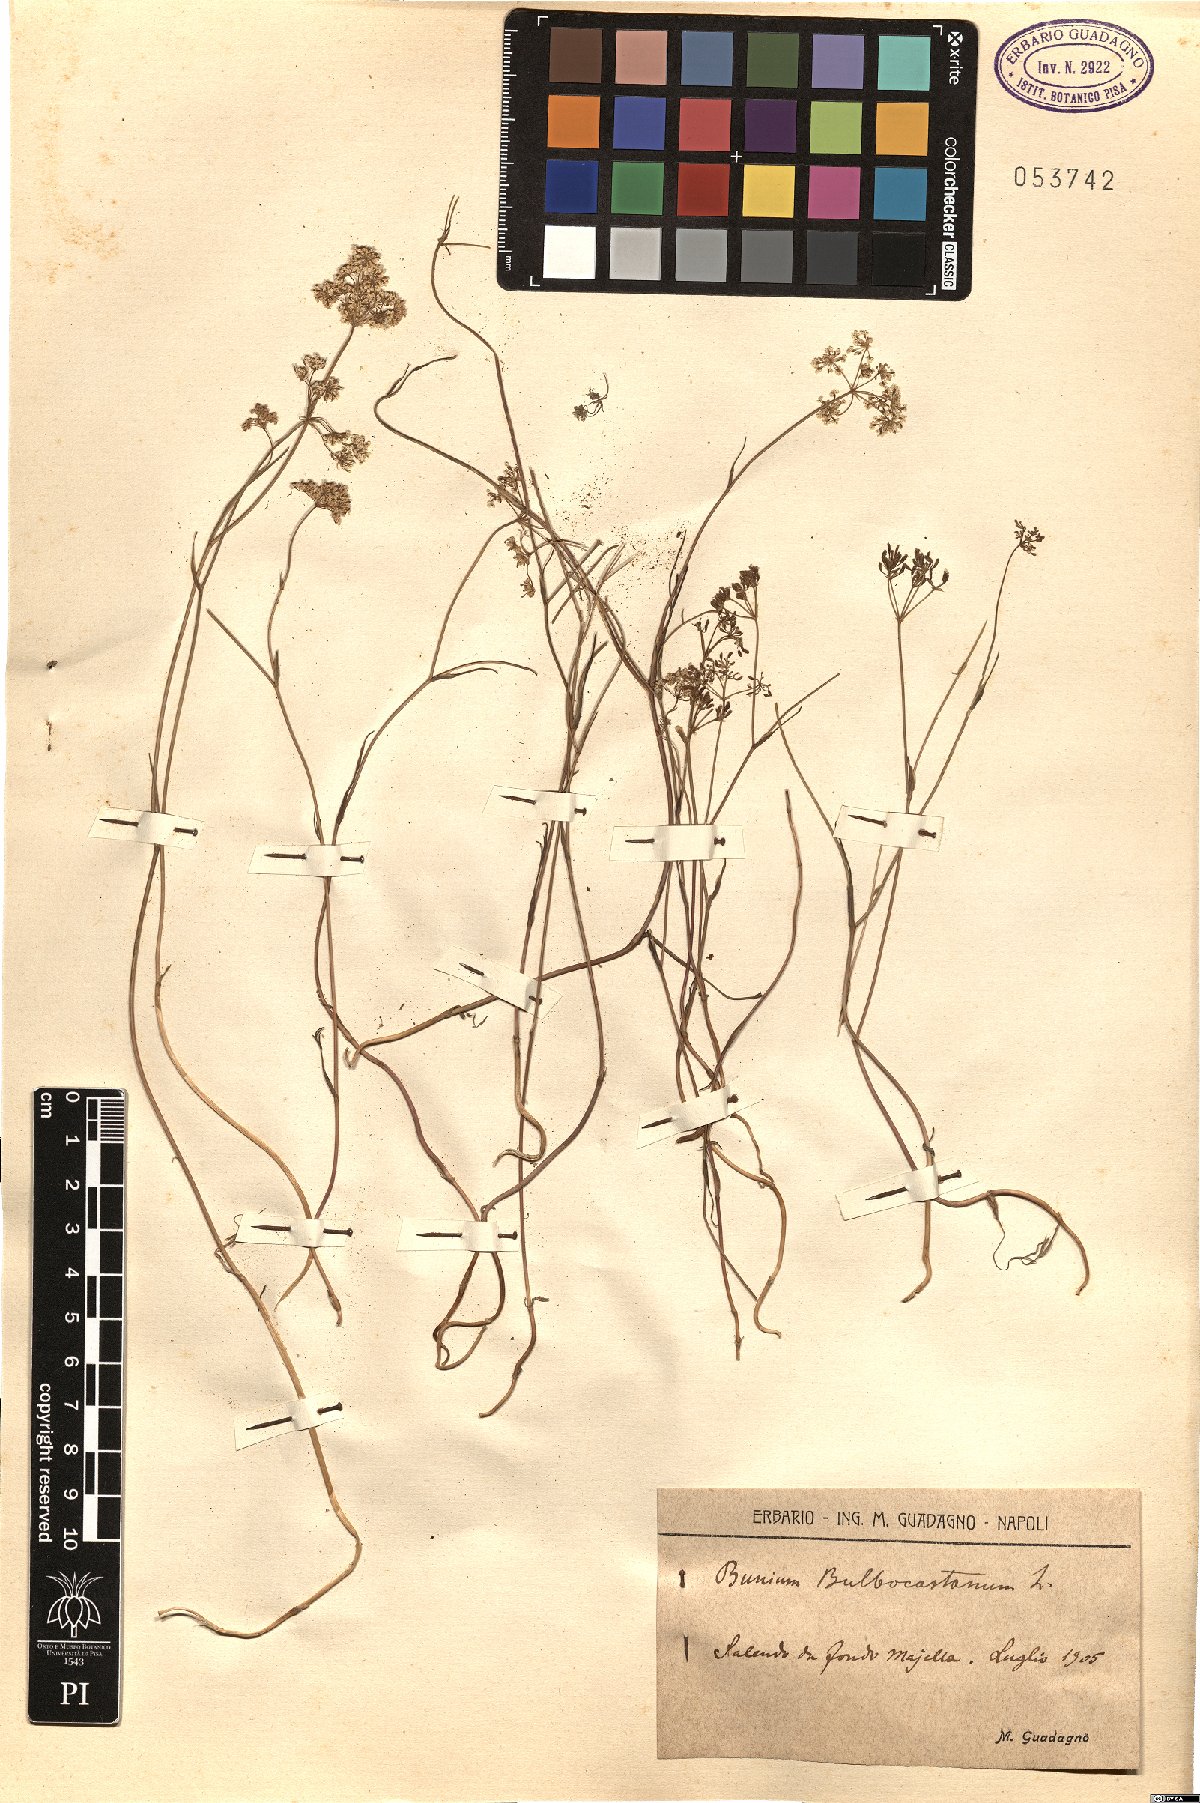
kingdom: Plantae
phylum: Tracheophyta
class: Magnoliopsida
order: Apiales
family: Apiaceae
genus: Bunium
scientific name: Bunium bulbocastanum
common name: Great pignut
